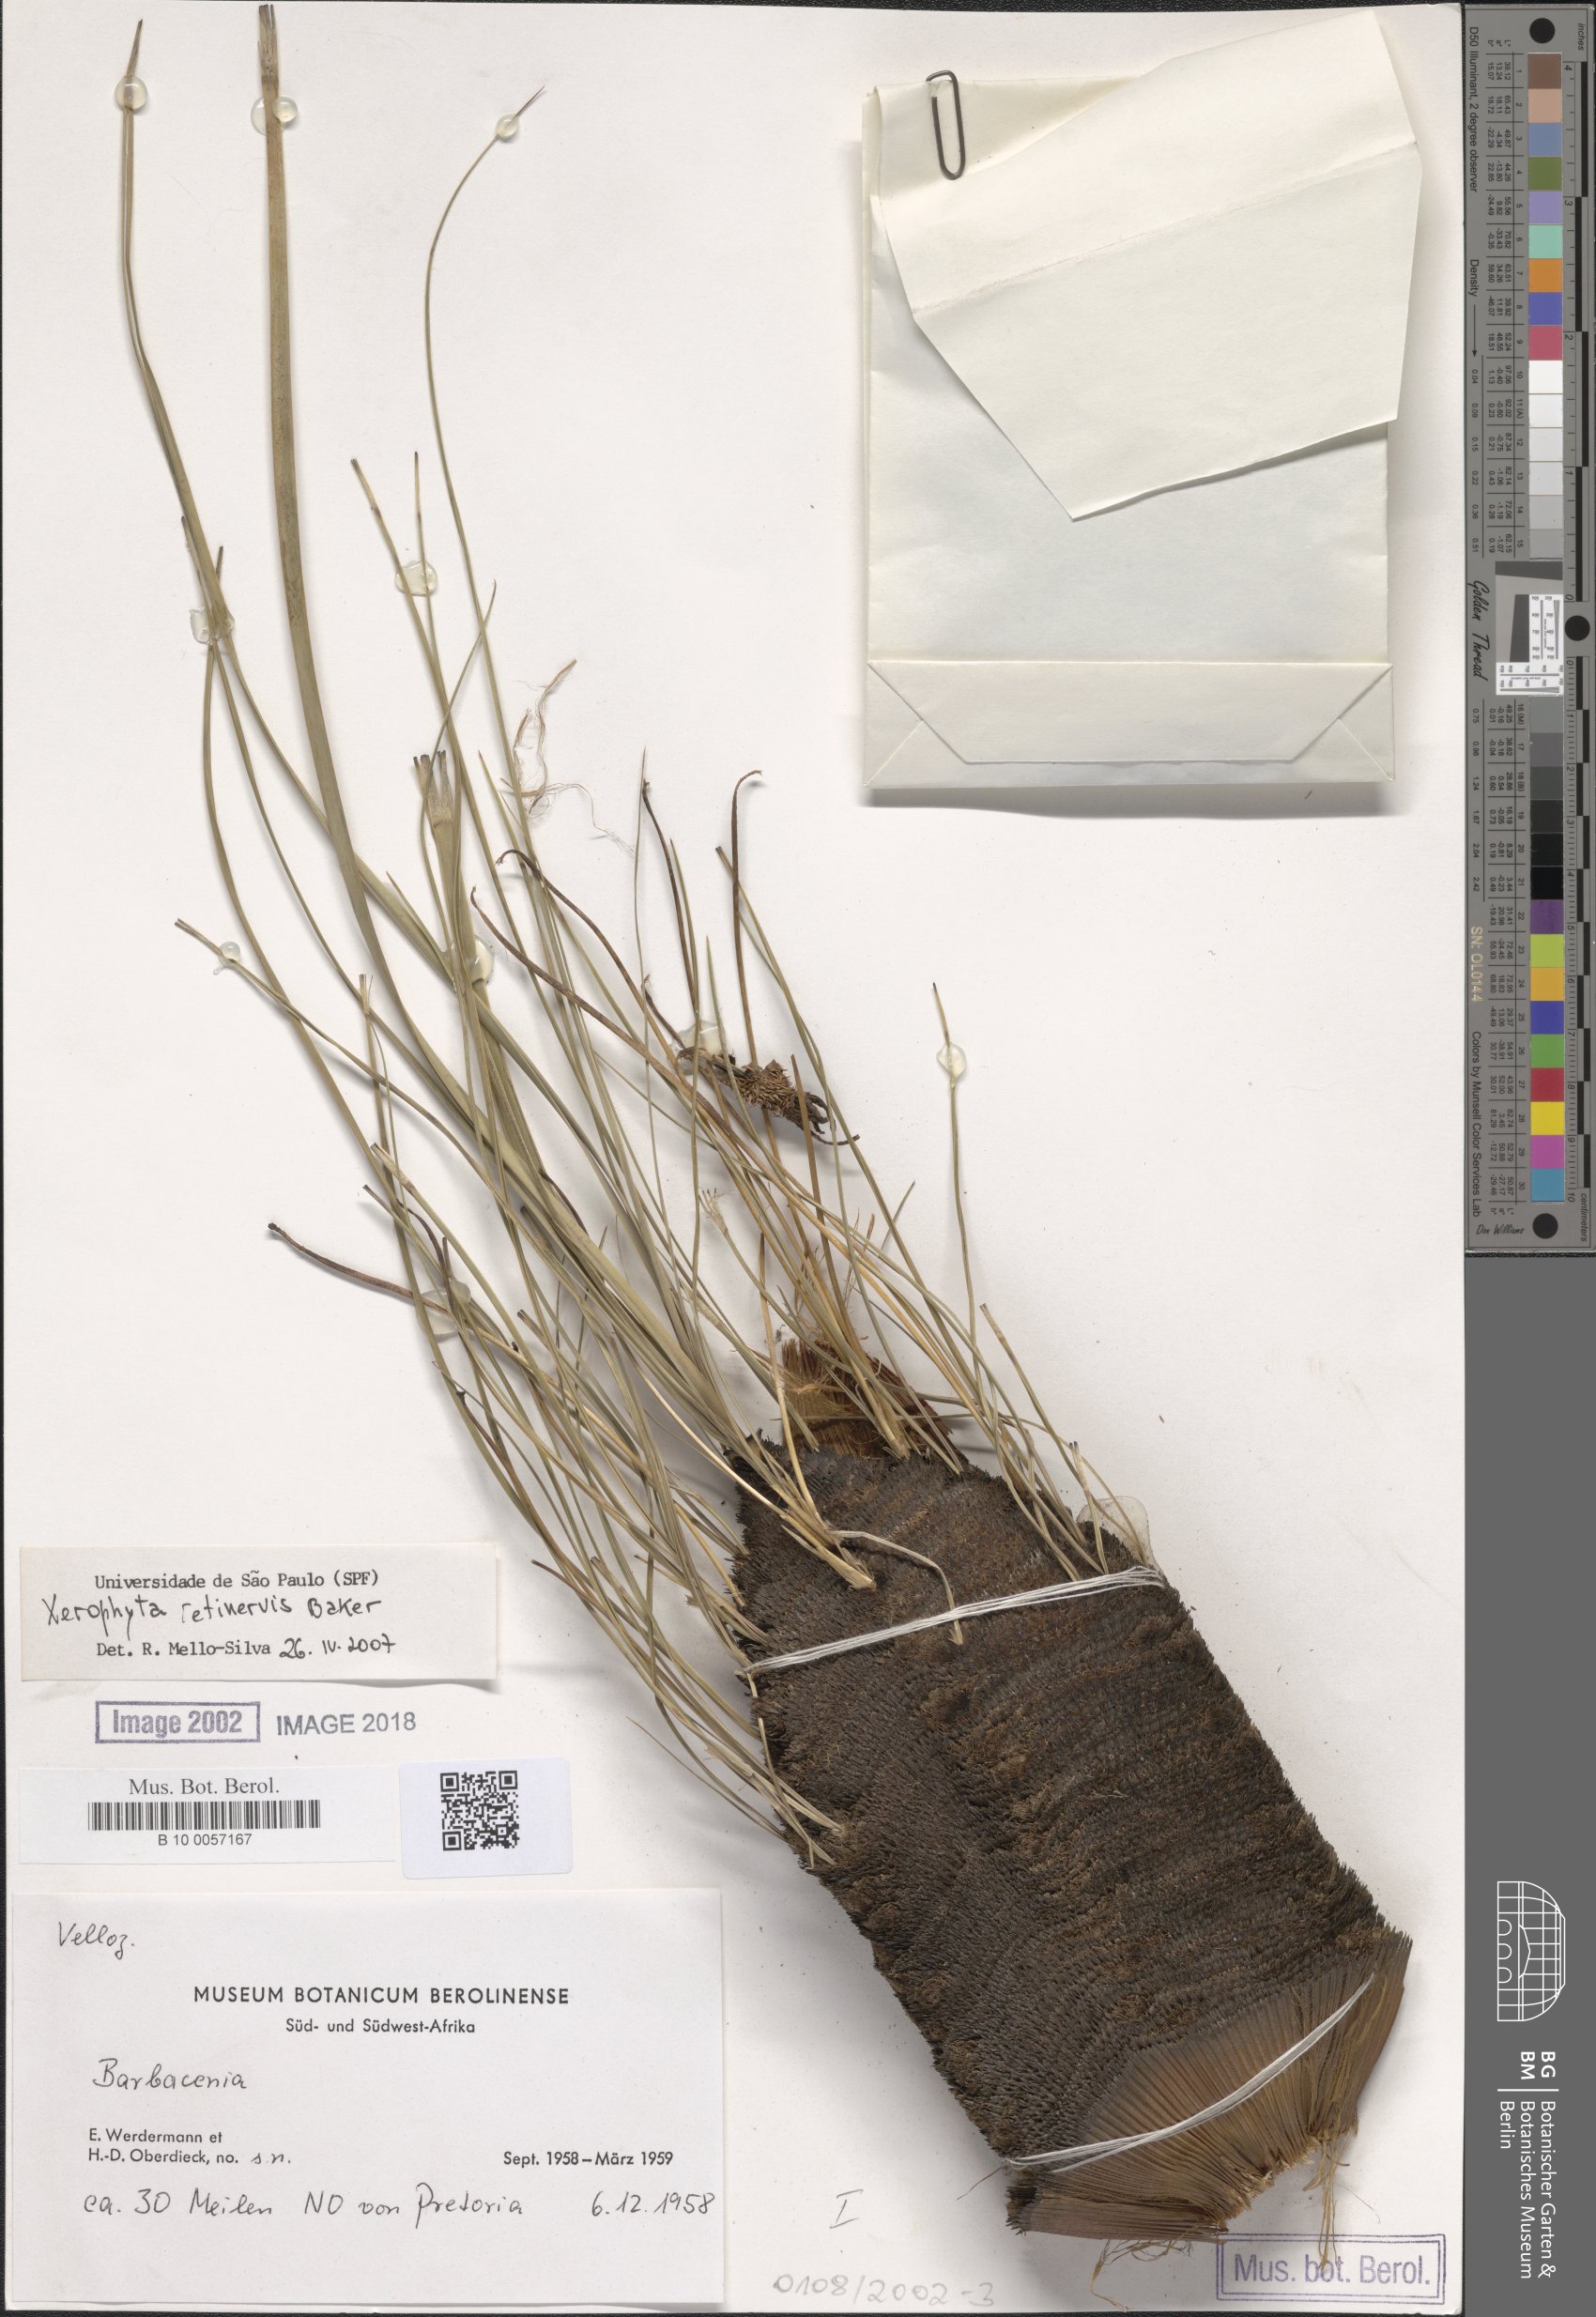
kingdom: Plantae
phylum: Tracheophyta
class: Liliopsida
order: Pandanales
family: Velloziaceae
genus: Barbacenia
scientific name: Barbacenia
